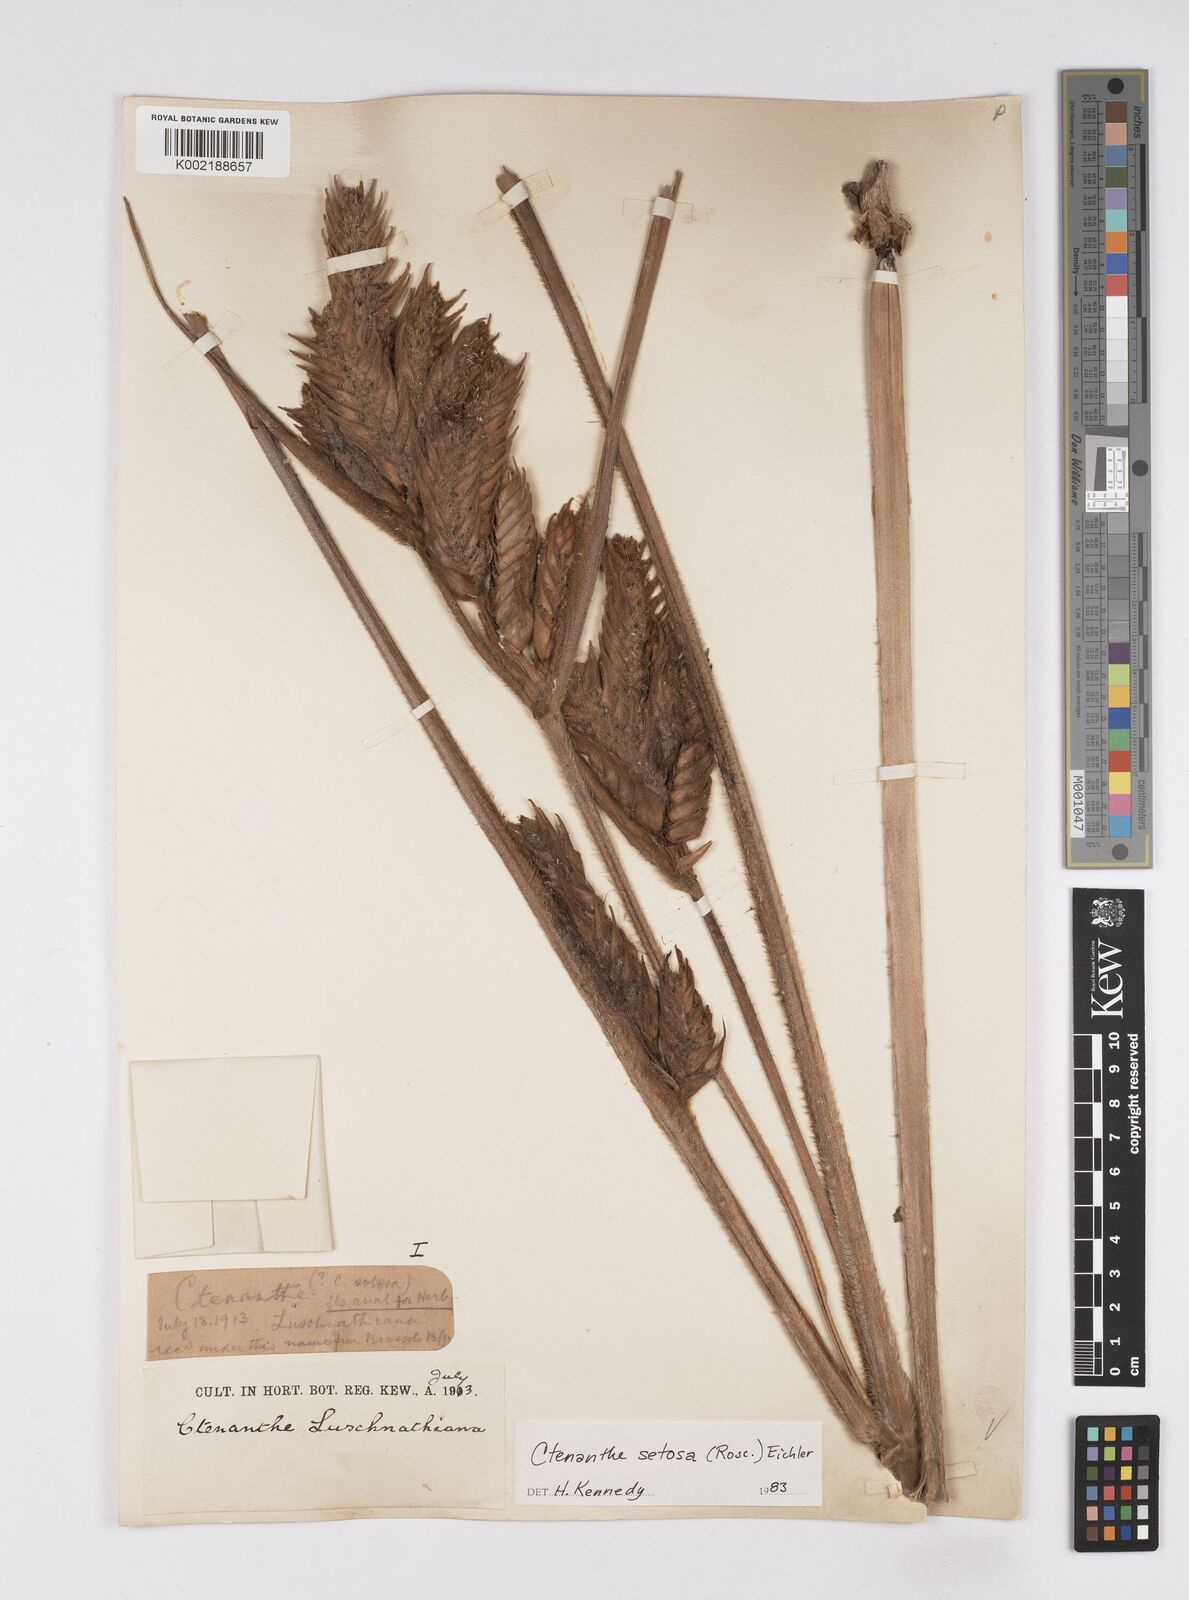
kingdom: Plantae
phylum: Tracheophyta
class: Liliopsida
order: Zingiberales
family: Marantaceae
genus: Ctenanthe
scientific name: Ctenanthe setosa
